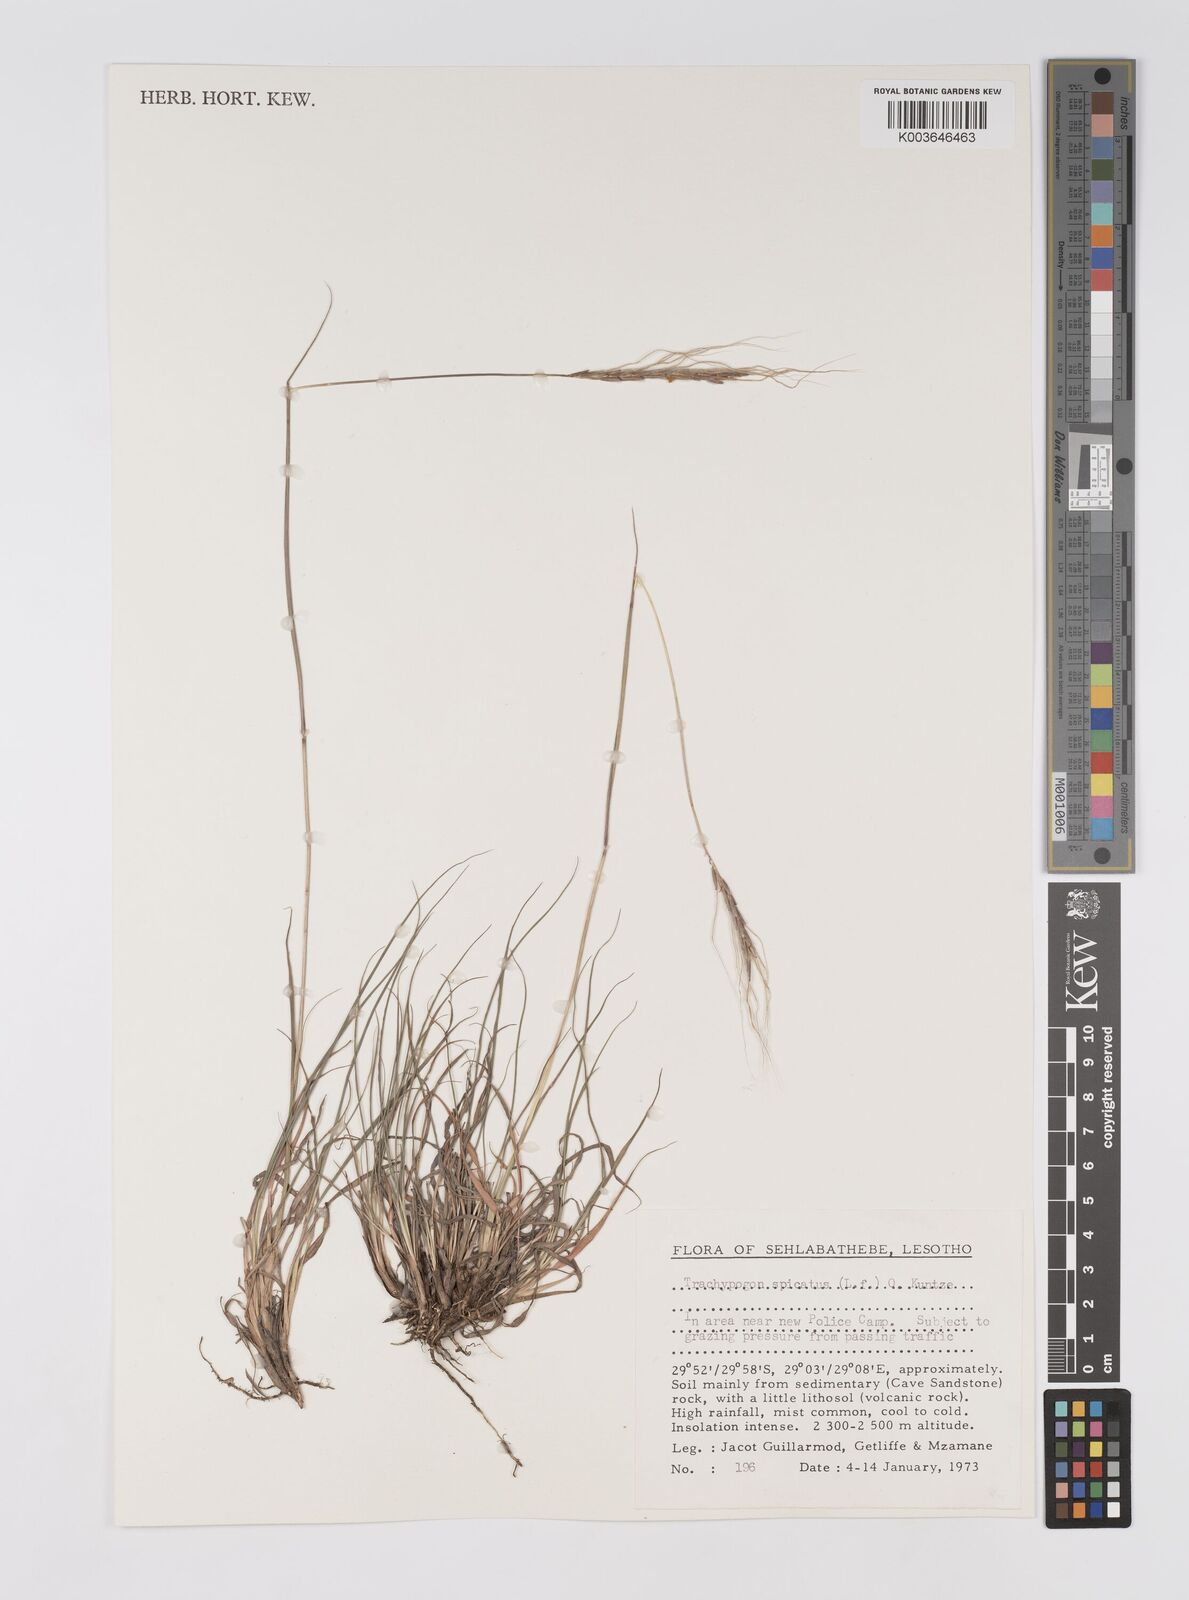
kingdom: Plantae
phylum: Tracheophyta
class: Liliopsida
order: Poales
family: Poaceae
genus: Trachypogon
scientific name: Trachypogon spicatus
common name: Crinkle-awn
